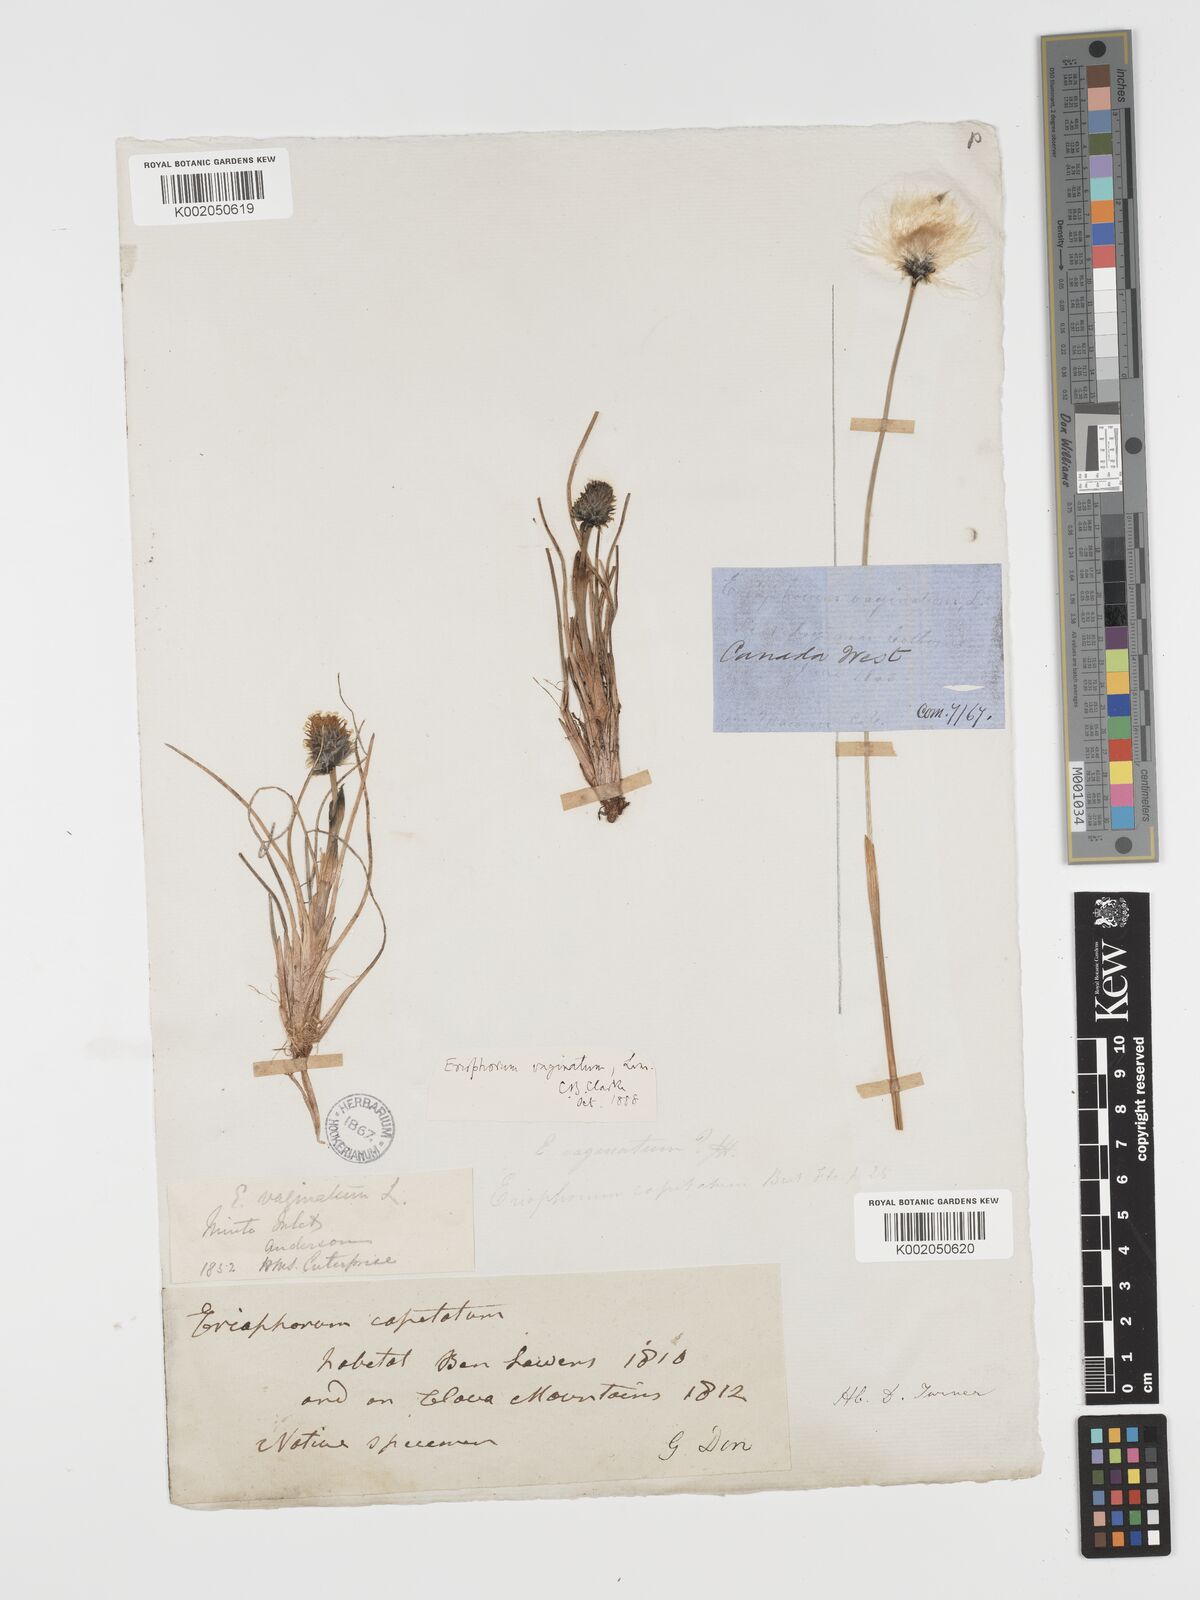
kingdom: Plantae
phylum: Tracheophyta
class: Liliopsida
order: Poales
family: Cyperaceae
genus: Eriophorum
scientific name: Eriophorum vaginatum
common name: Hare's-tail cottongrass
